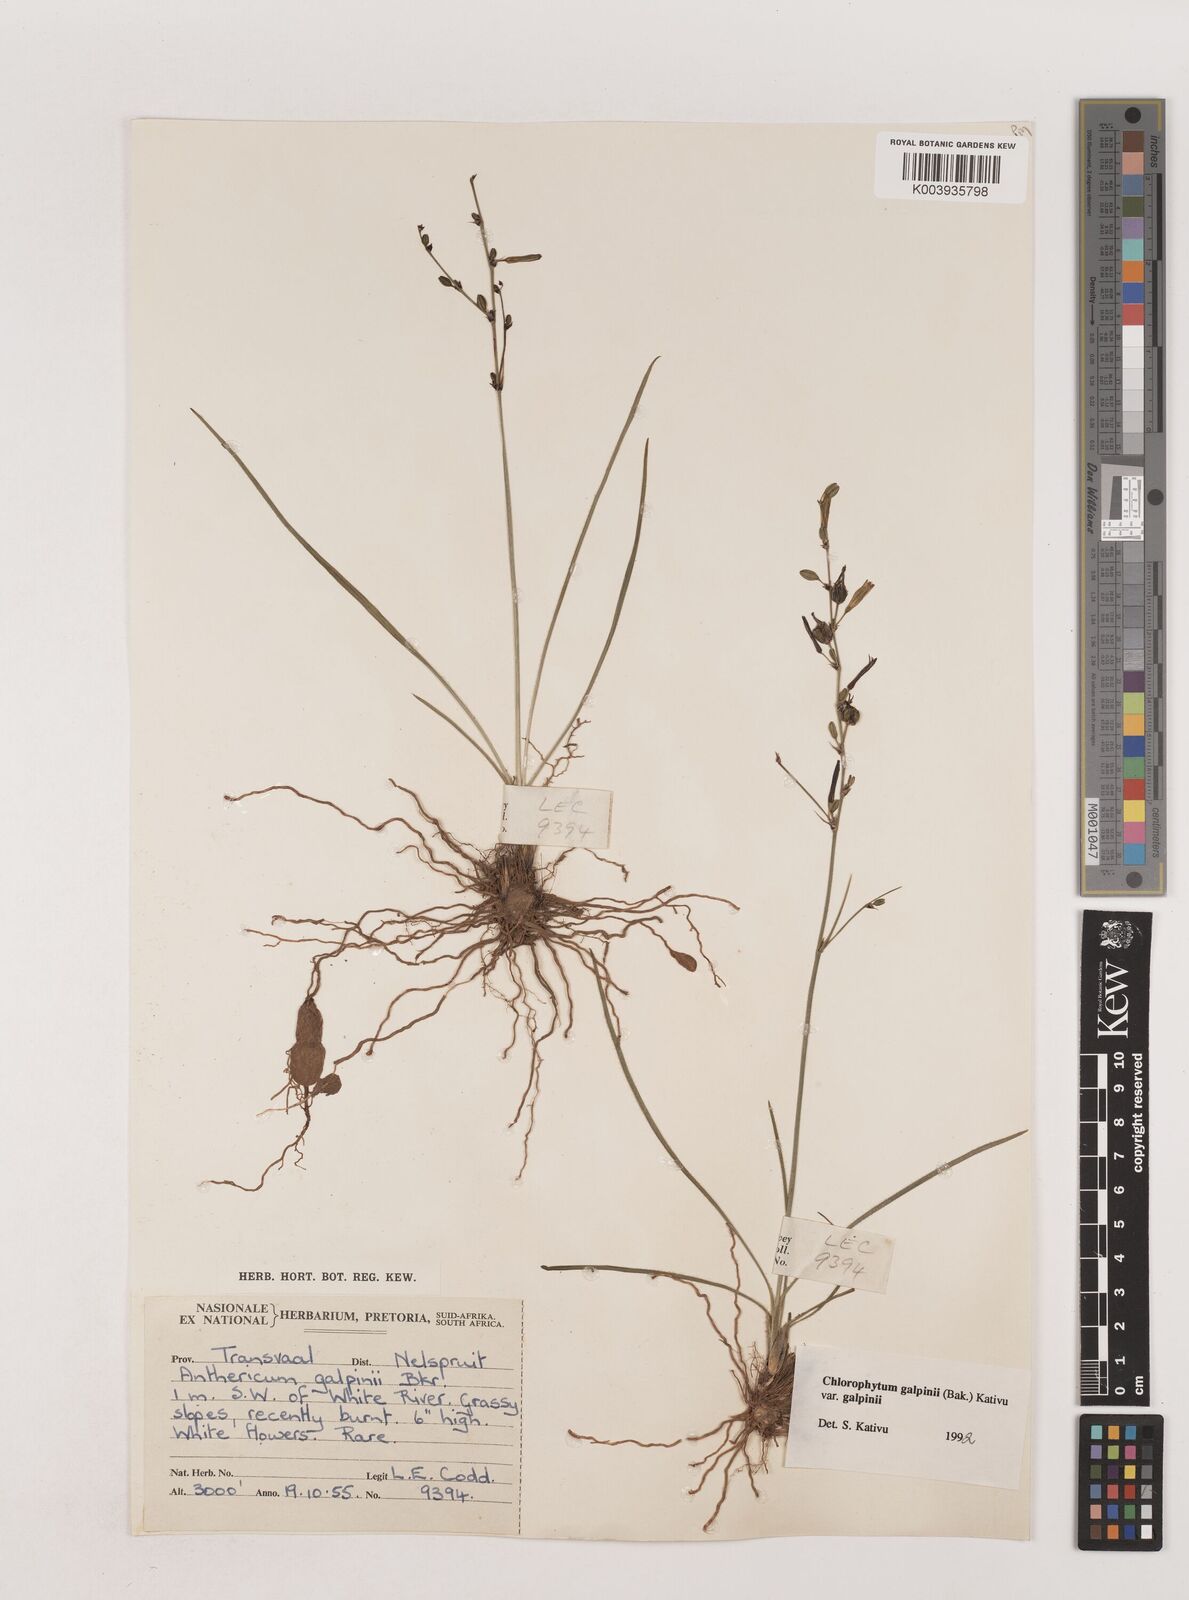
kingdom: Plantae
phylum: Tracheophyta
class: Liliopsida
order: Asparagales
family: Asparagaceae
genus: Chlorophytum
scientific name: Chlorophytum galpinii
